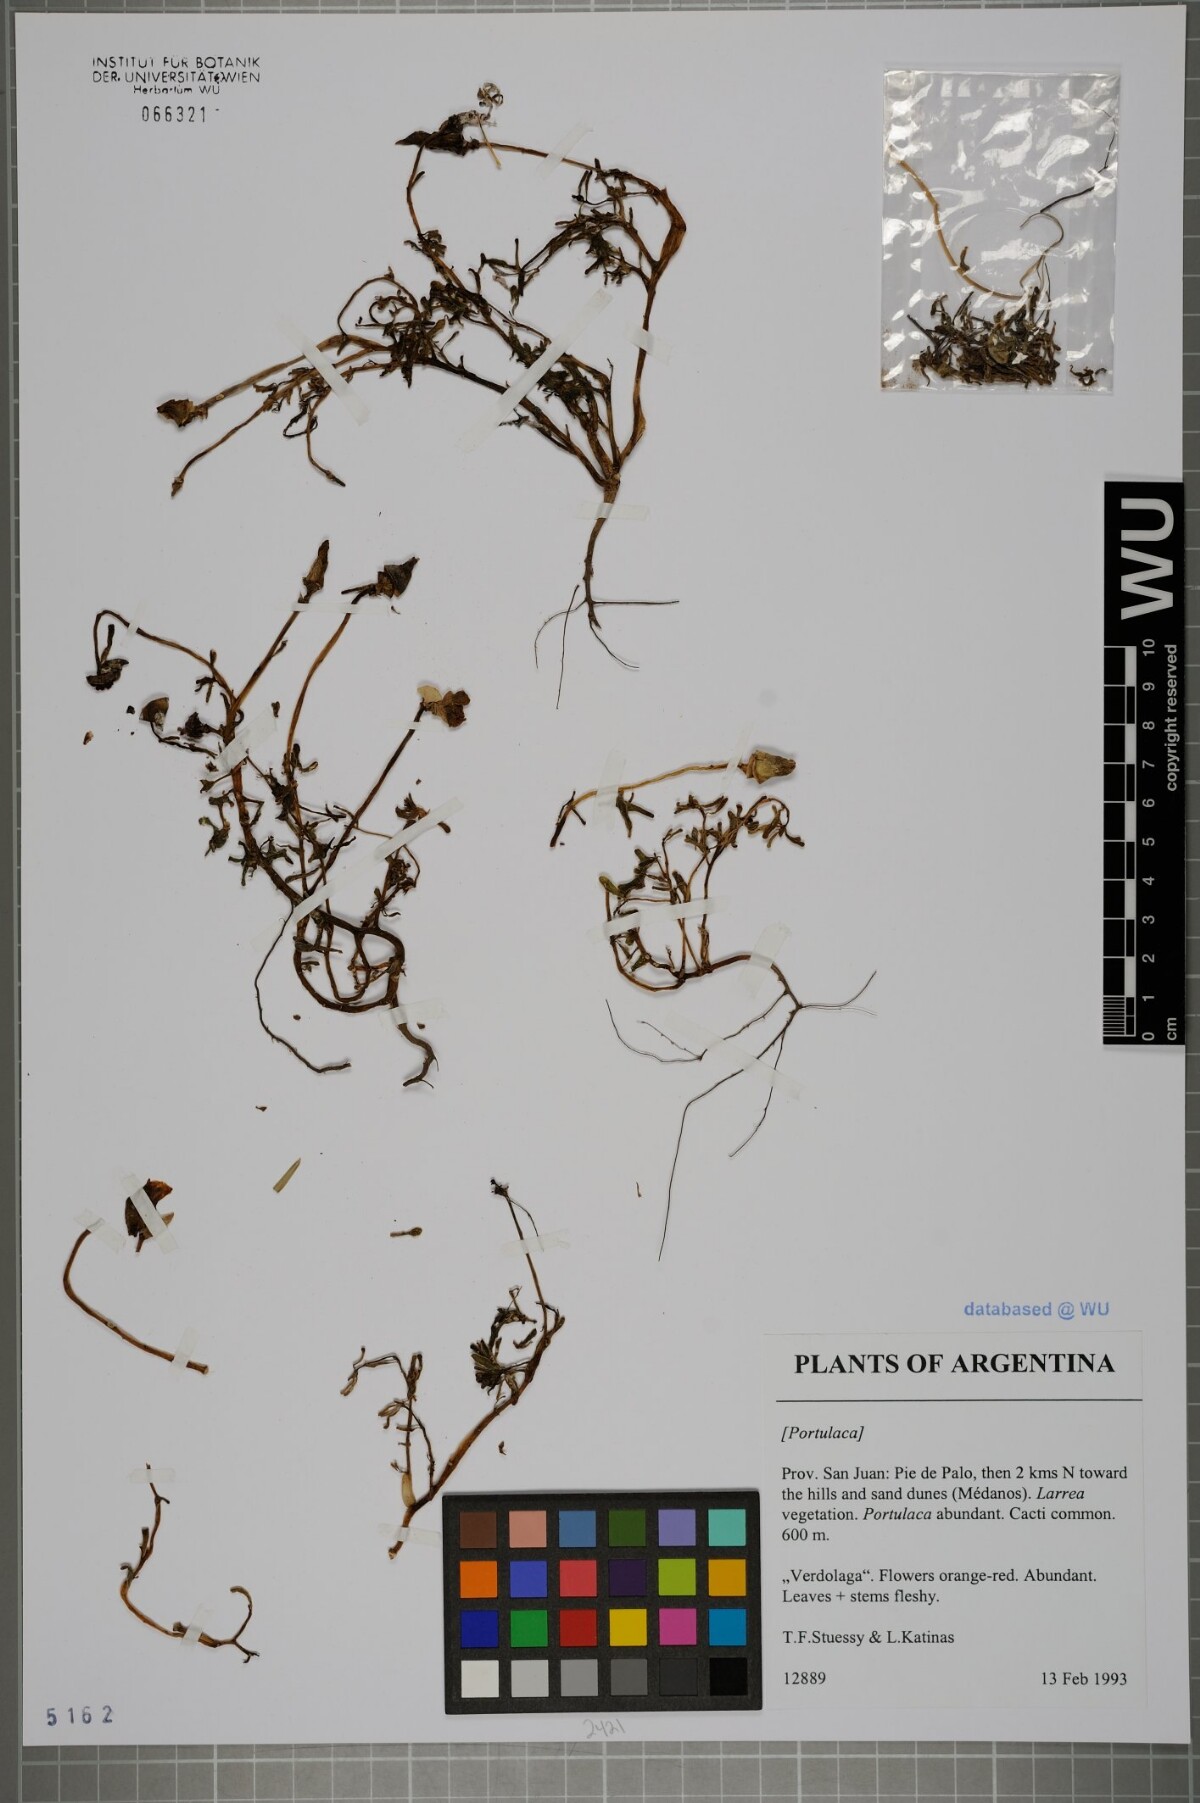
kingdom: Plantae
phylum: Tracheophyta
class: Magnoliopsida
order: Caryophyllales
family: Portulacaceae
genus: Portulaca
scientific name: Portulaca
